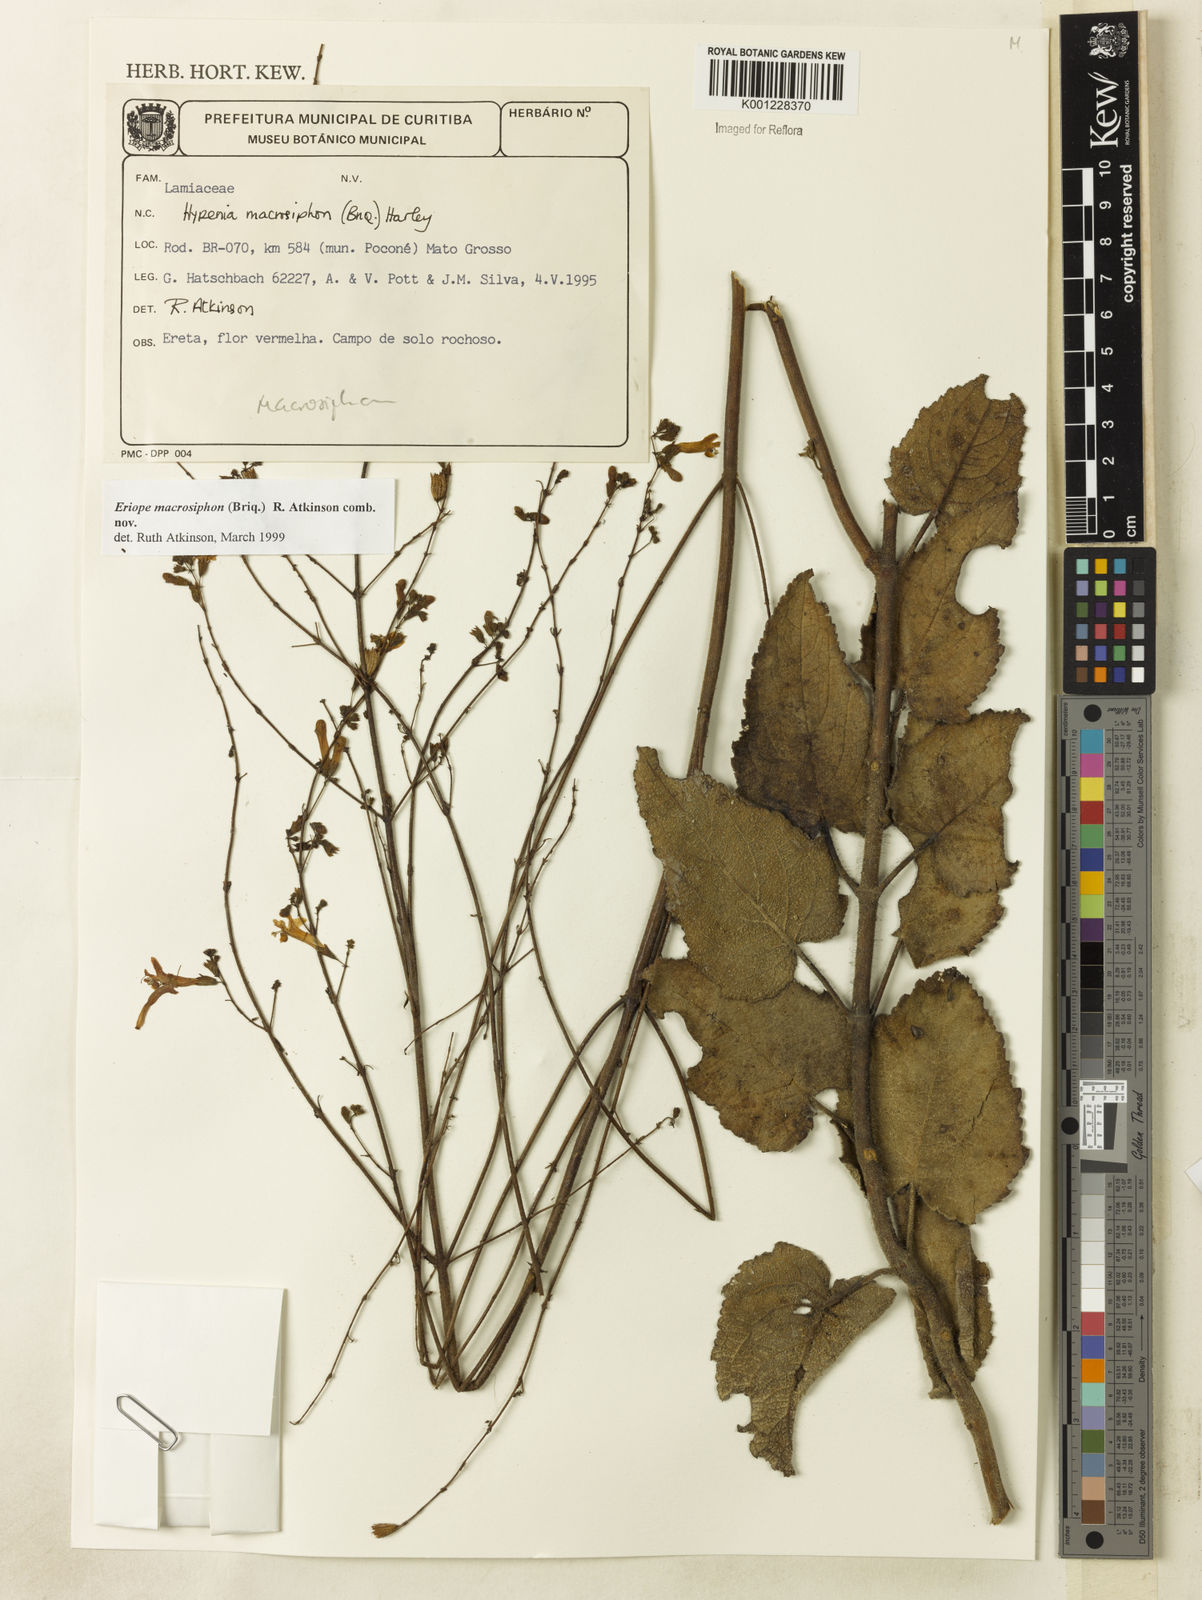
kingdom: Plantae
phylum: Tracheophyta
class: Magnoliopsida
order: Lamiales
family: Lamiaceae
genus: Hypenia
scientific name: Hypenia macrosiphon
